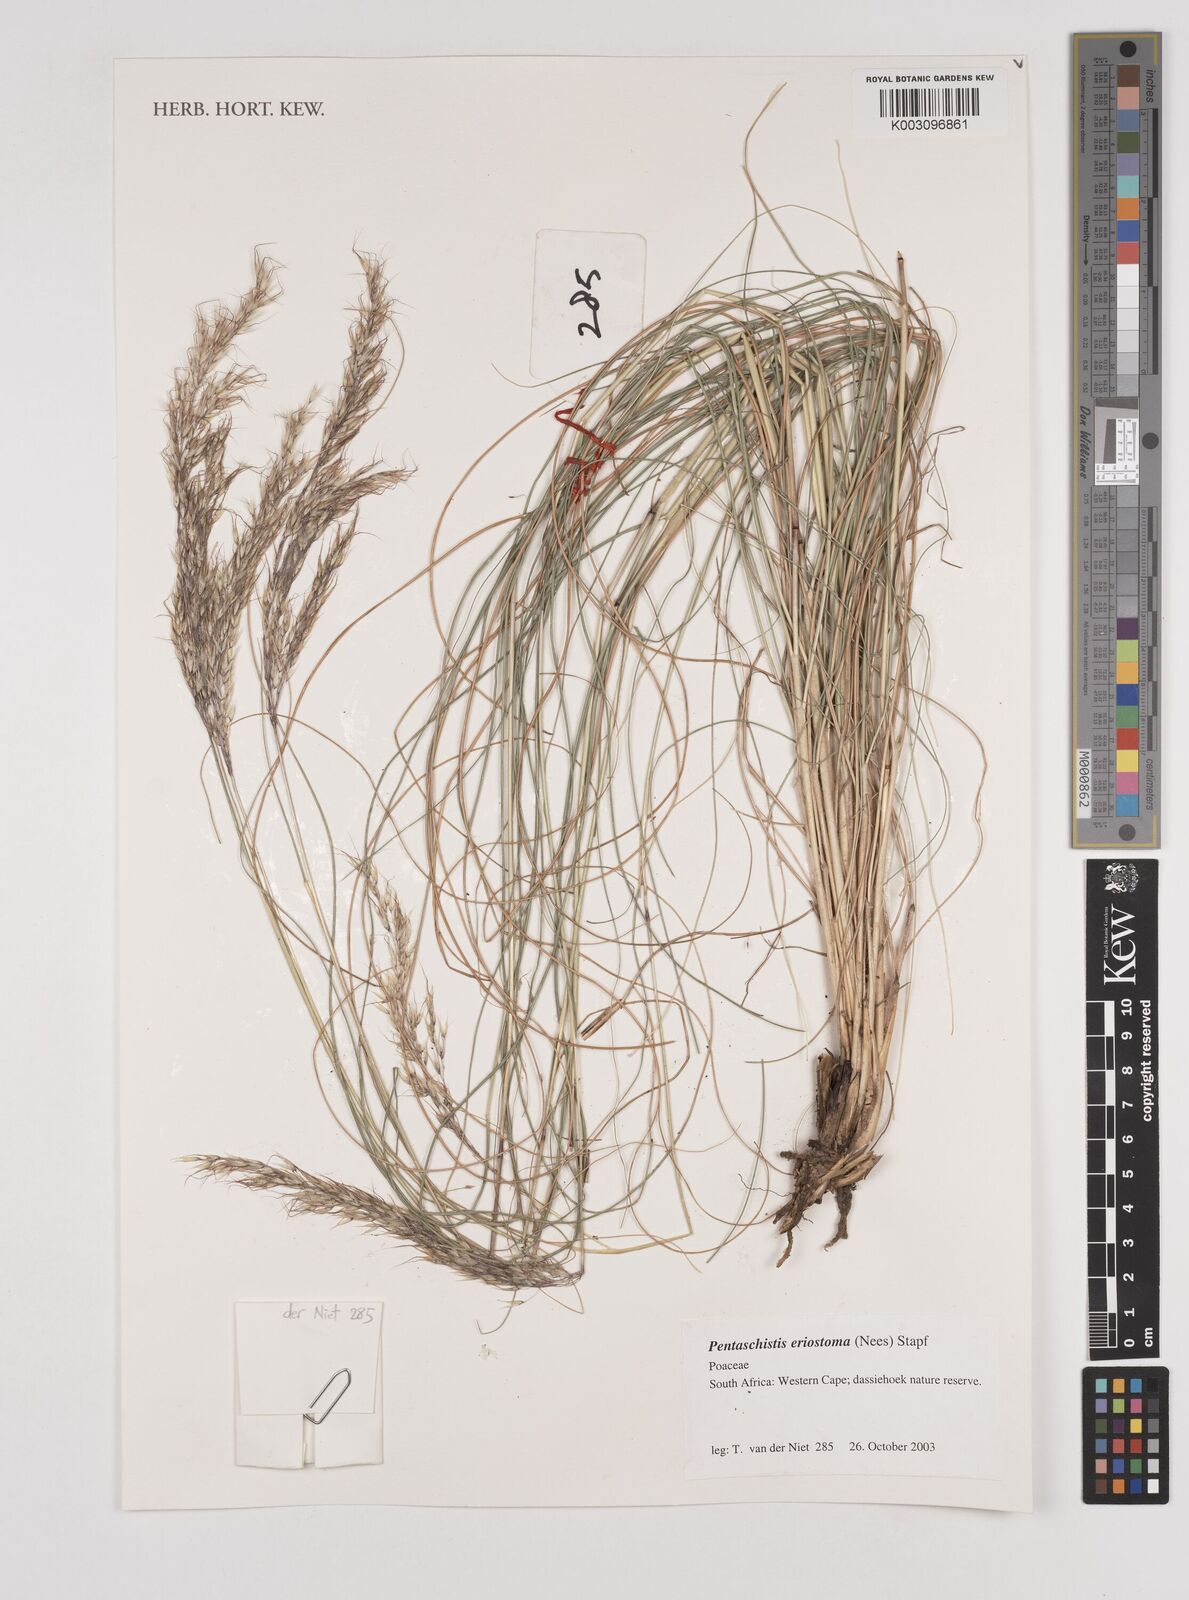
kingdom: Plantae
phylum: Tracheophyta
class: Liliopsida
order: Poales
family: Poaceae
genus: Pentameris
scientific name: Pentameris eriostoma
